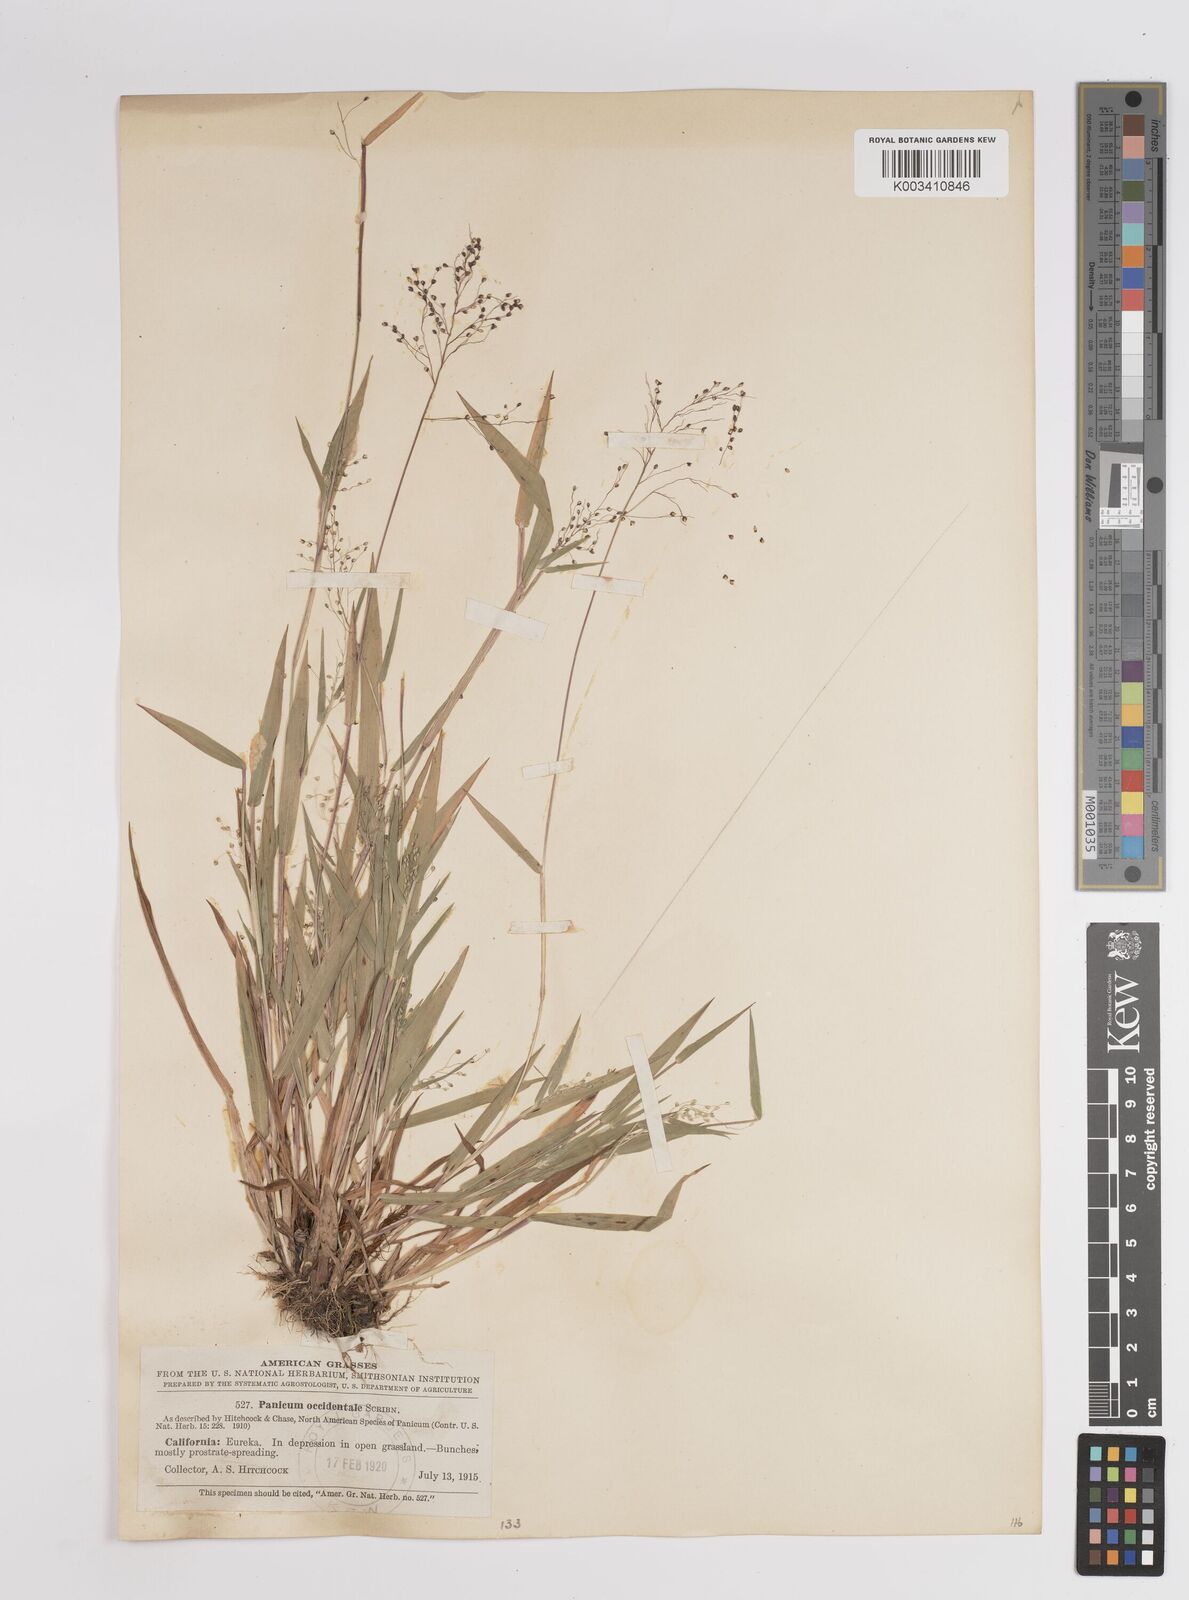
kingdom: Plantae
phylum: Tracheophyta
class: Liliopsida
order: Poales
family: Poaceae
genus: Dichanthelium
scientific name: Dichanthelium implicatum
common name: Slender-stemmed panicgrass
